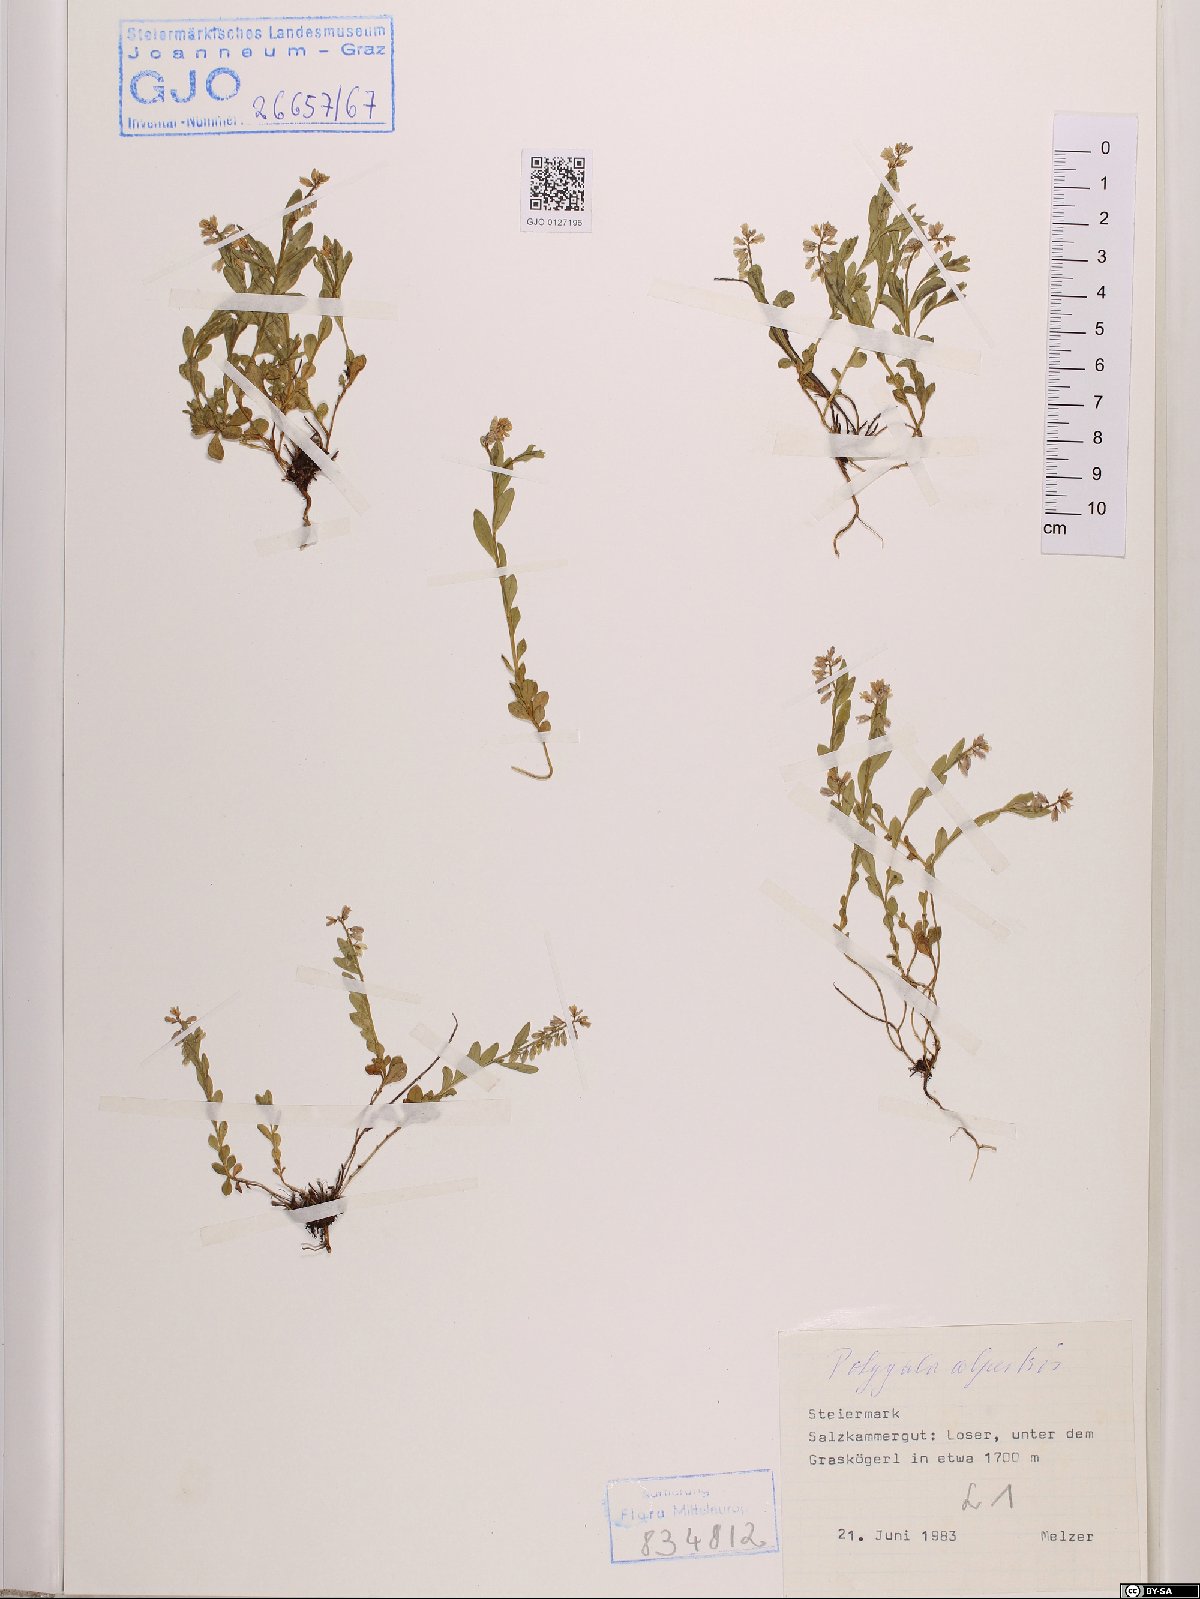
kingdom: Plantae
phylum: Tracheophyta
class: Magnoliopsida
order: Fabales
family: Polygalaceae
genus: Polygala
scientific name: Polygala alpestris
